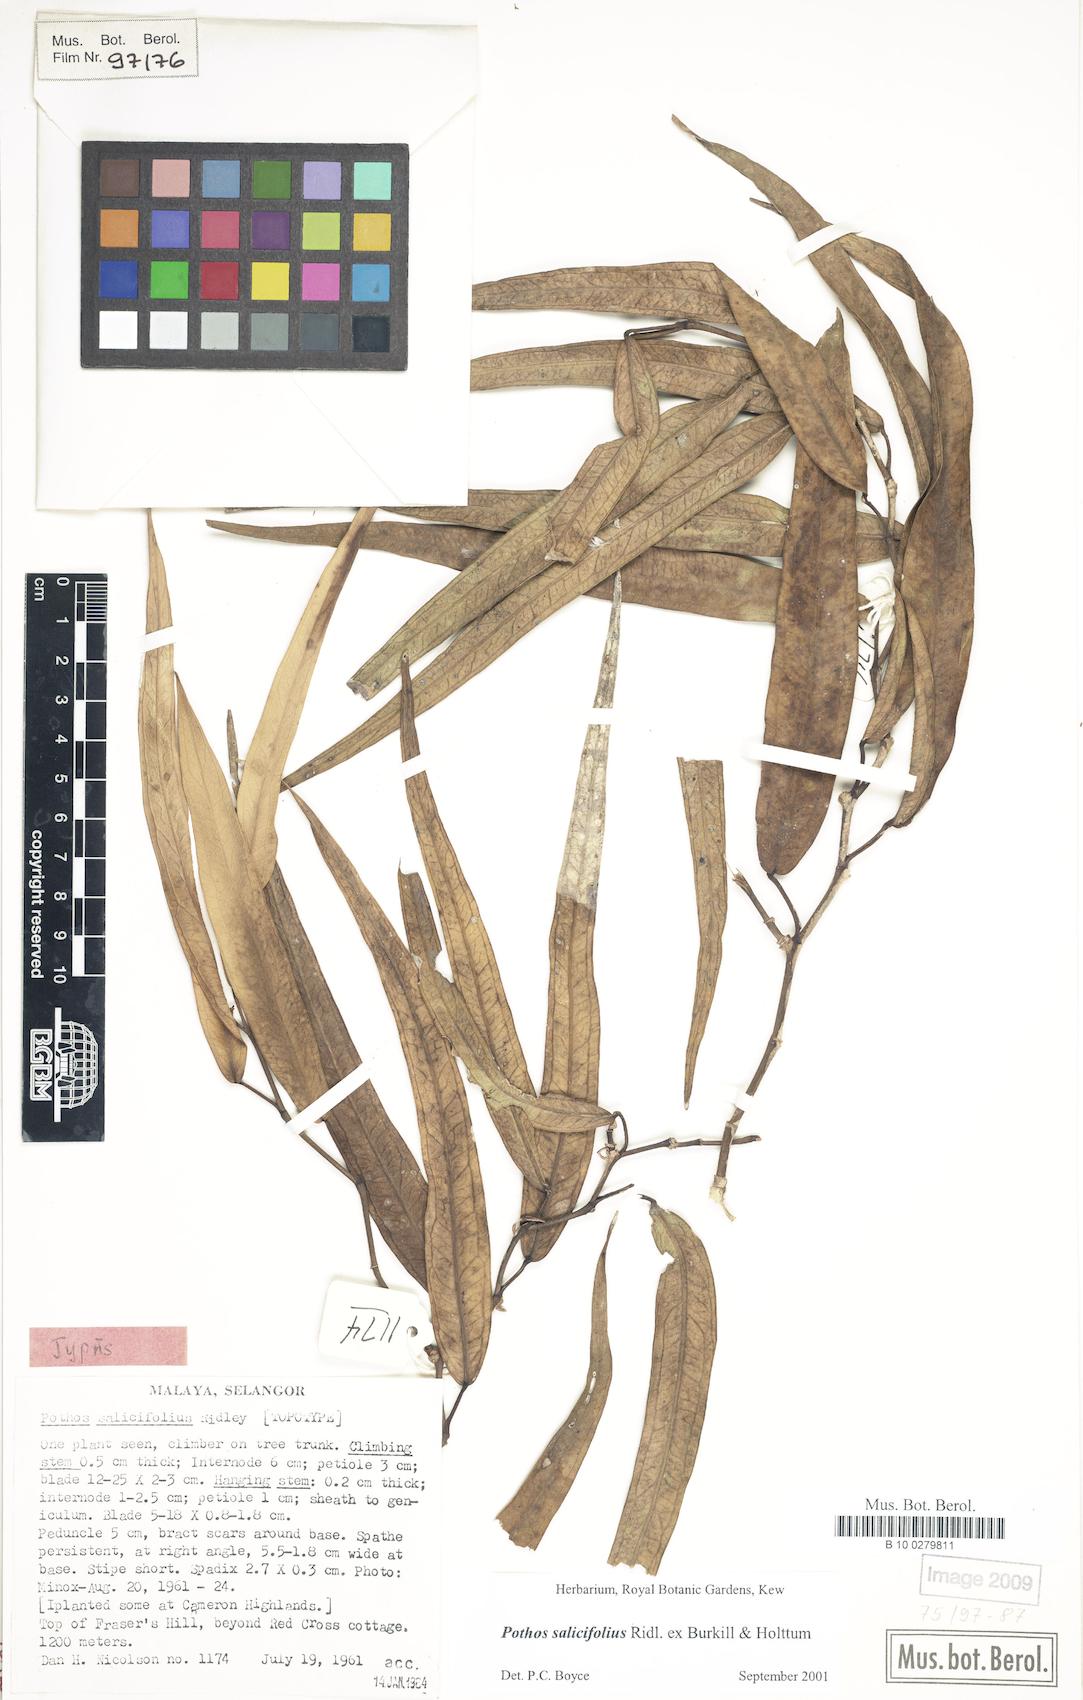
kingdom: Plantae
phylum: Tracheophyta
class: Liliopsida
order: Alismatales
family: Araceae
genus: Pothos
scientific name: Pothos salicifolius
